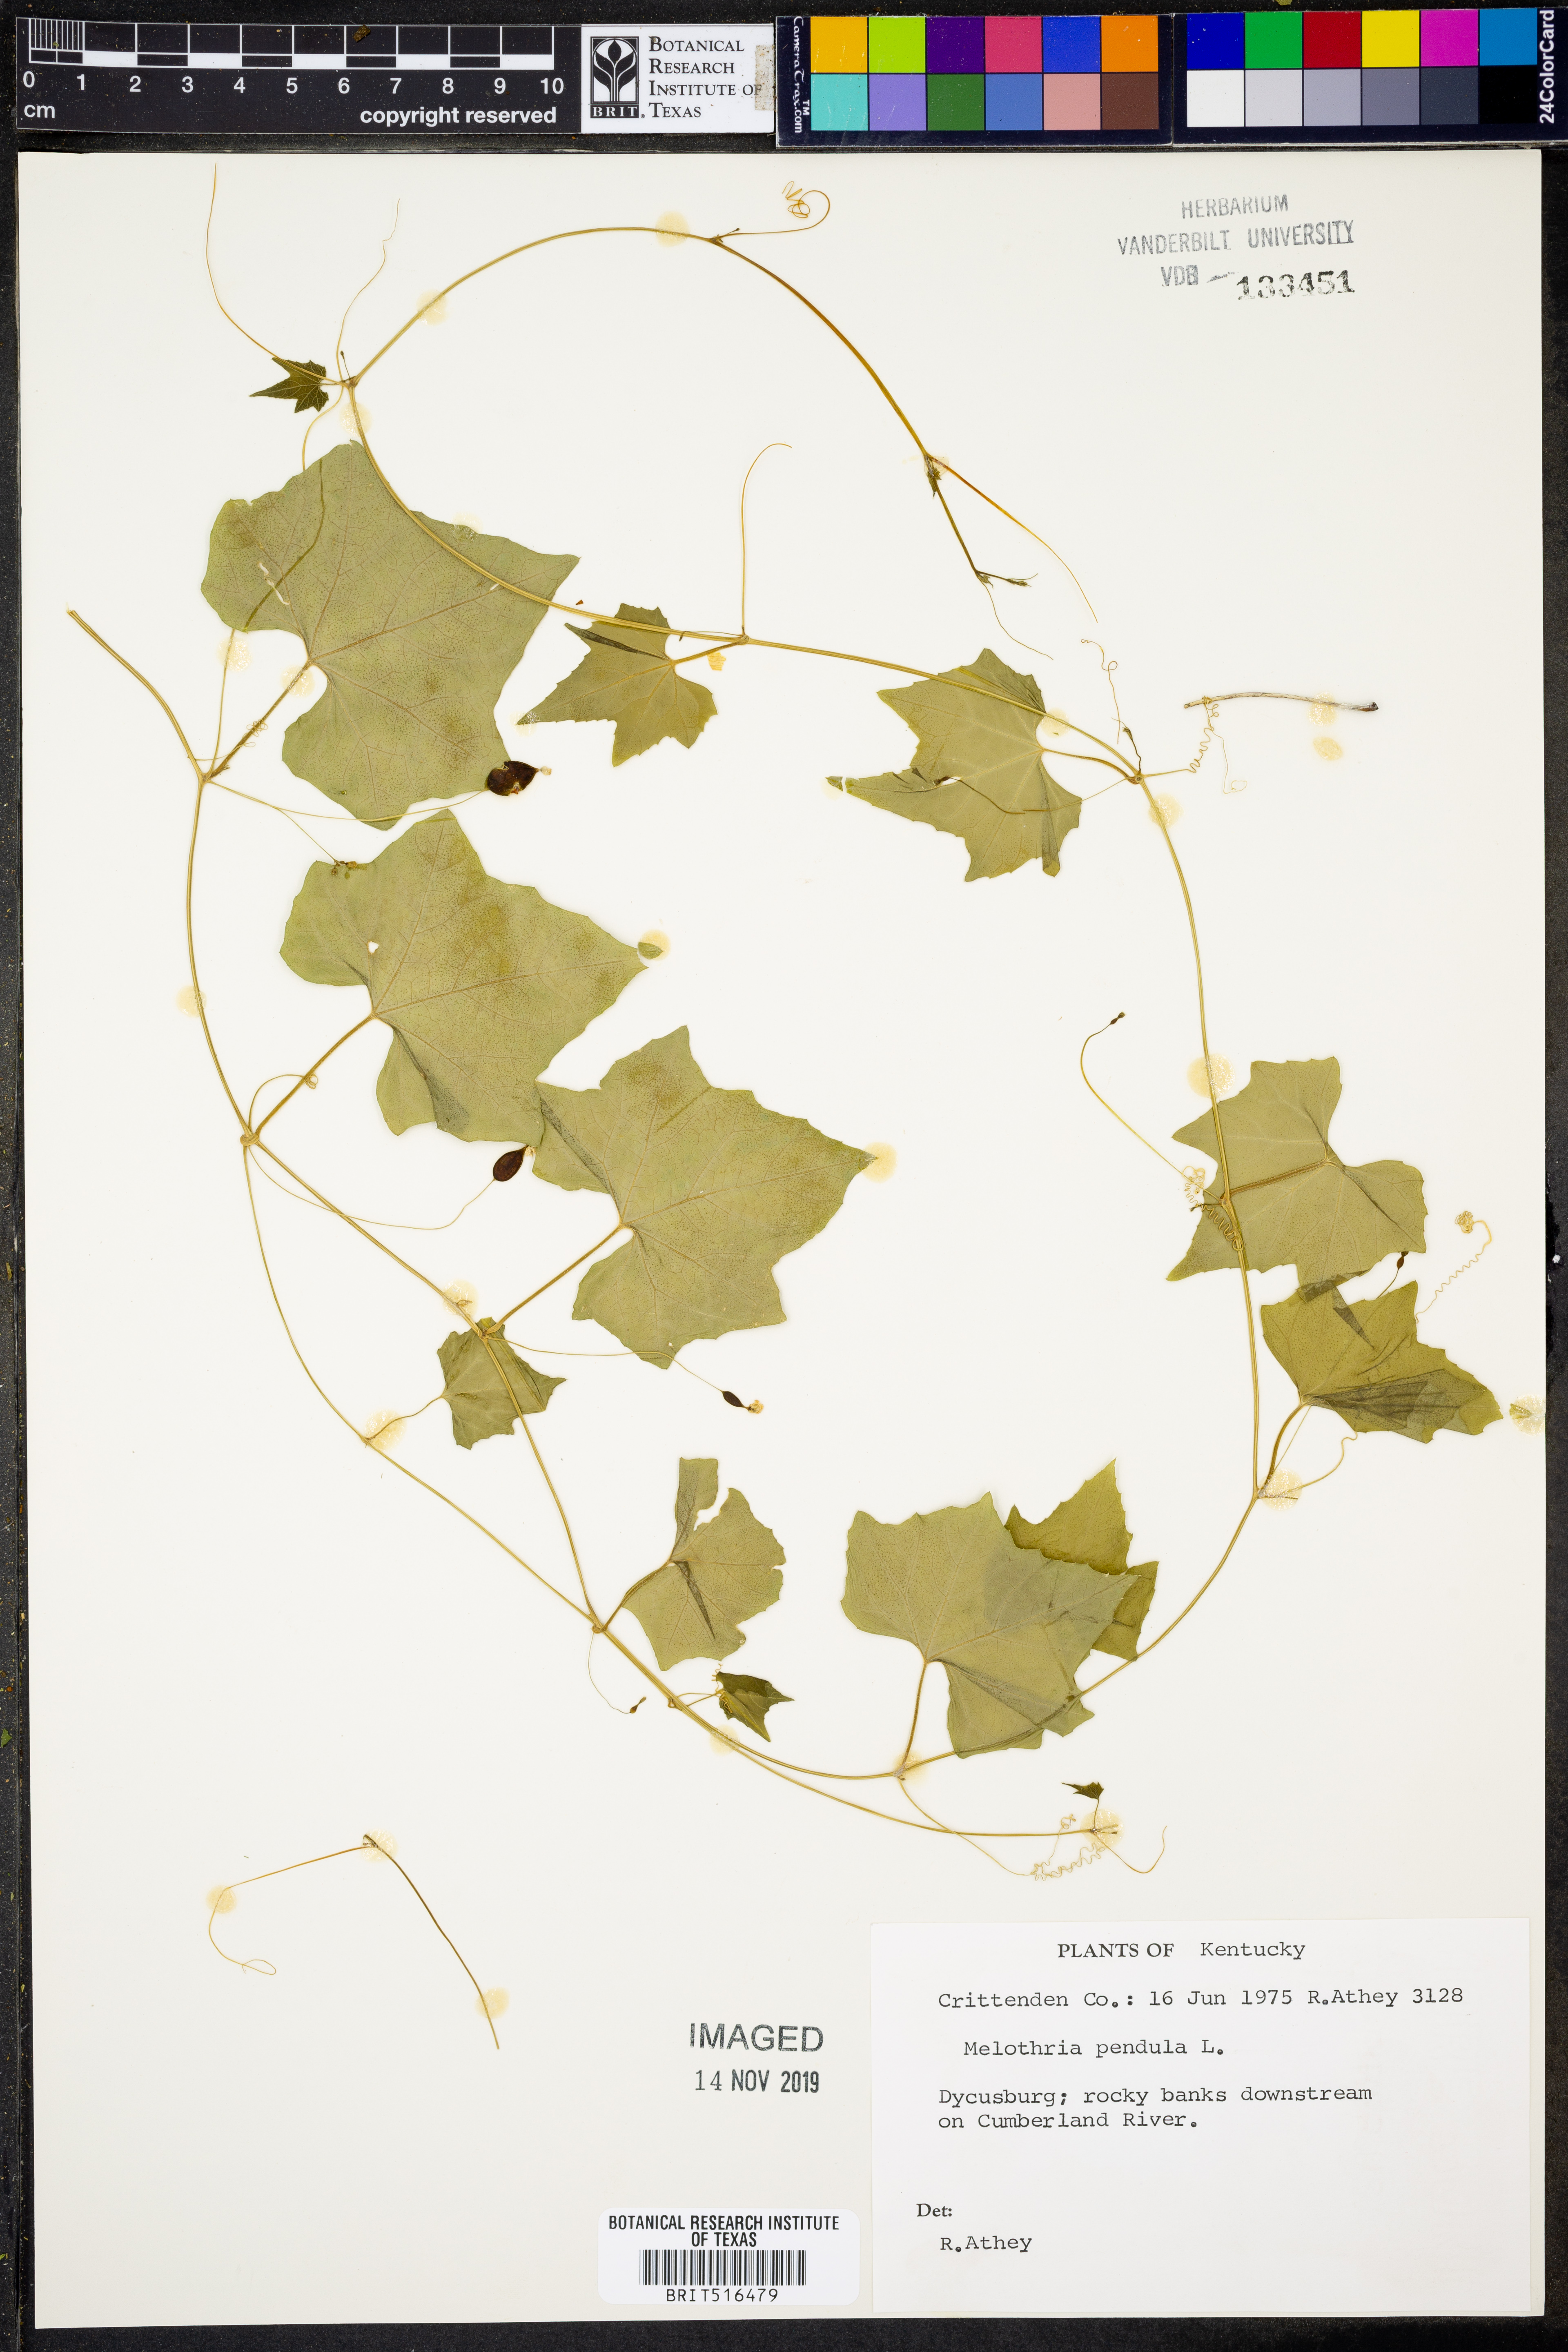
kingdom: Plantae
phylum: Tracheophyta
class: Magnoliopsida
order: Cucurbitales
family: Cucurbitaceae
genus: Melothria
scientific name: Melothria pendula
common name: Creeping-cucumber
